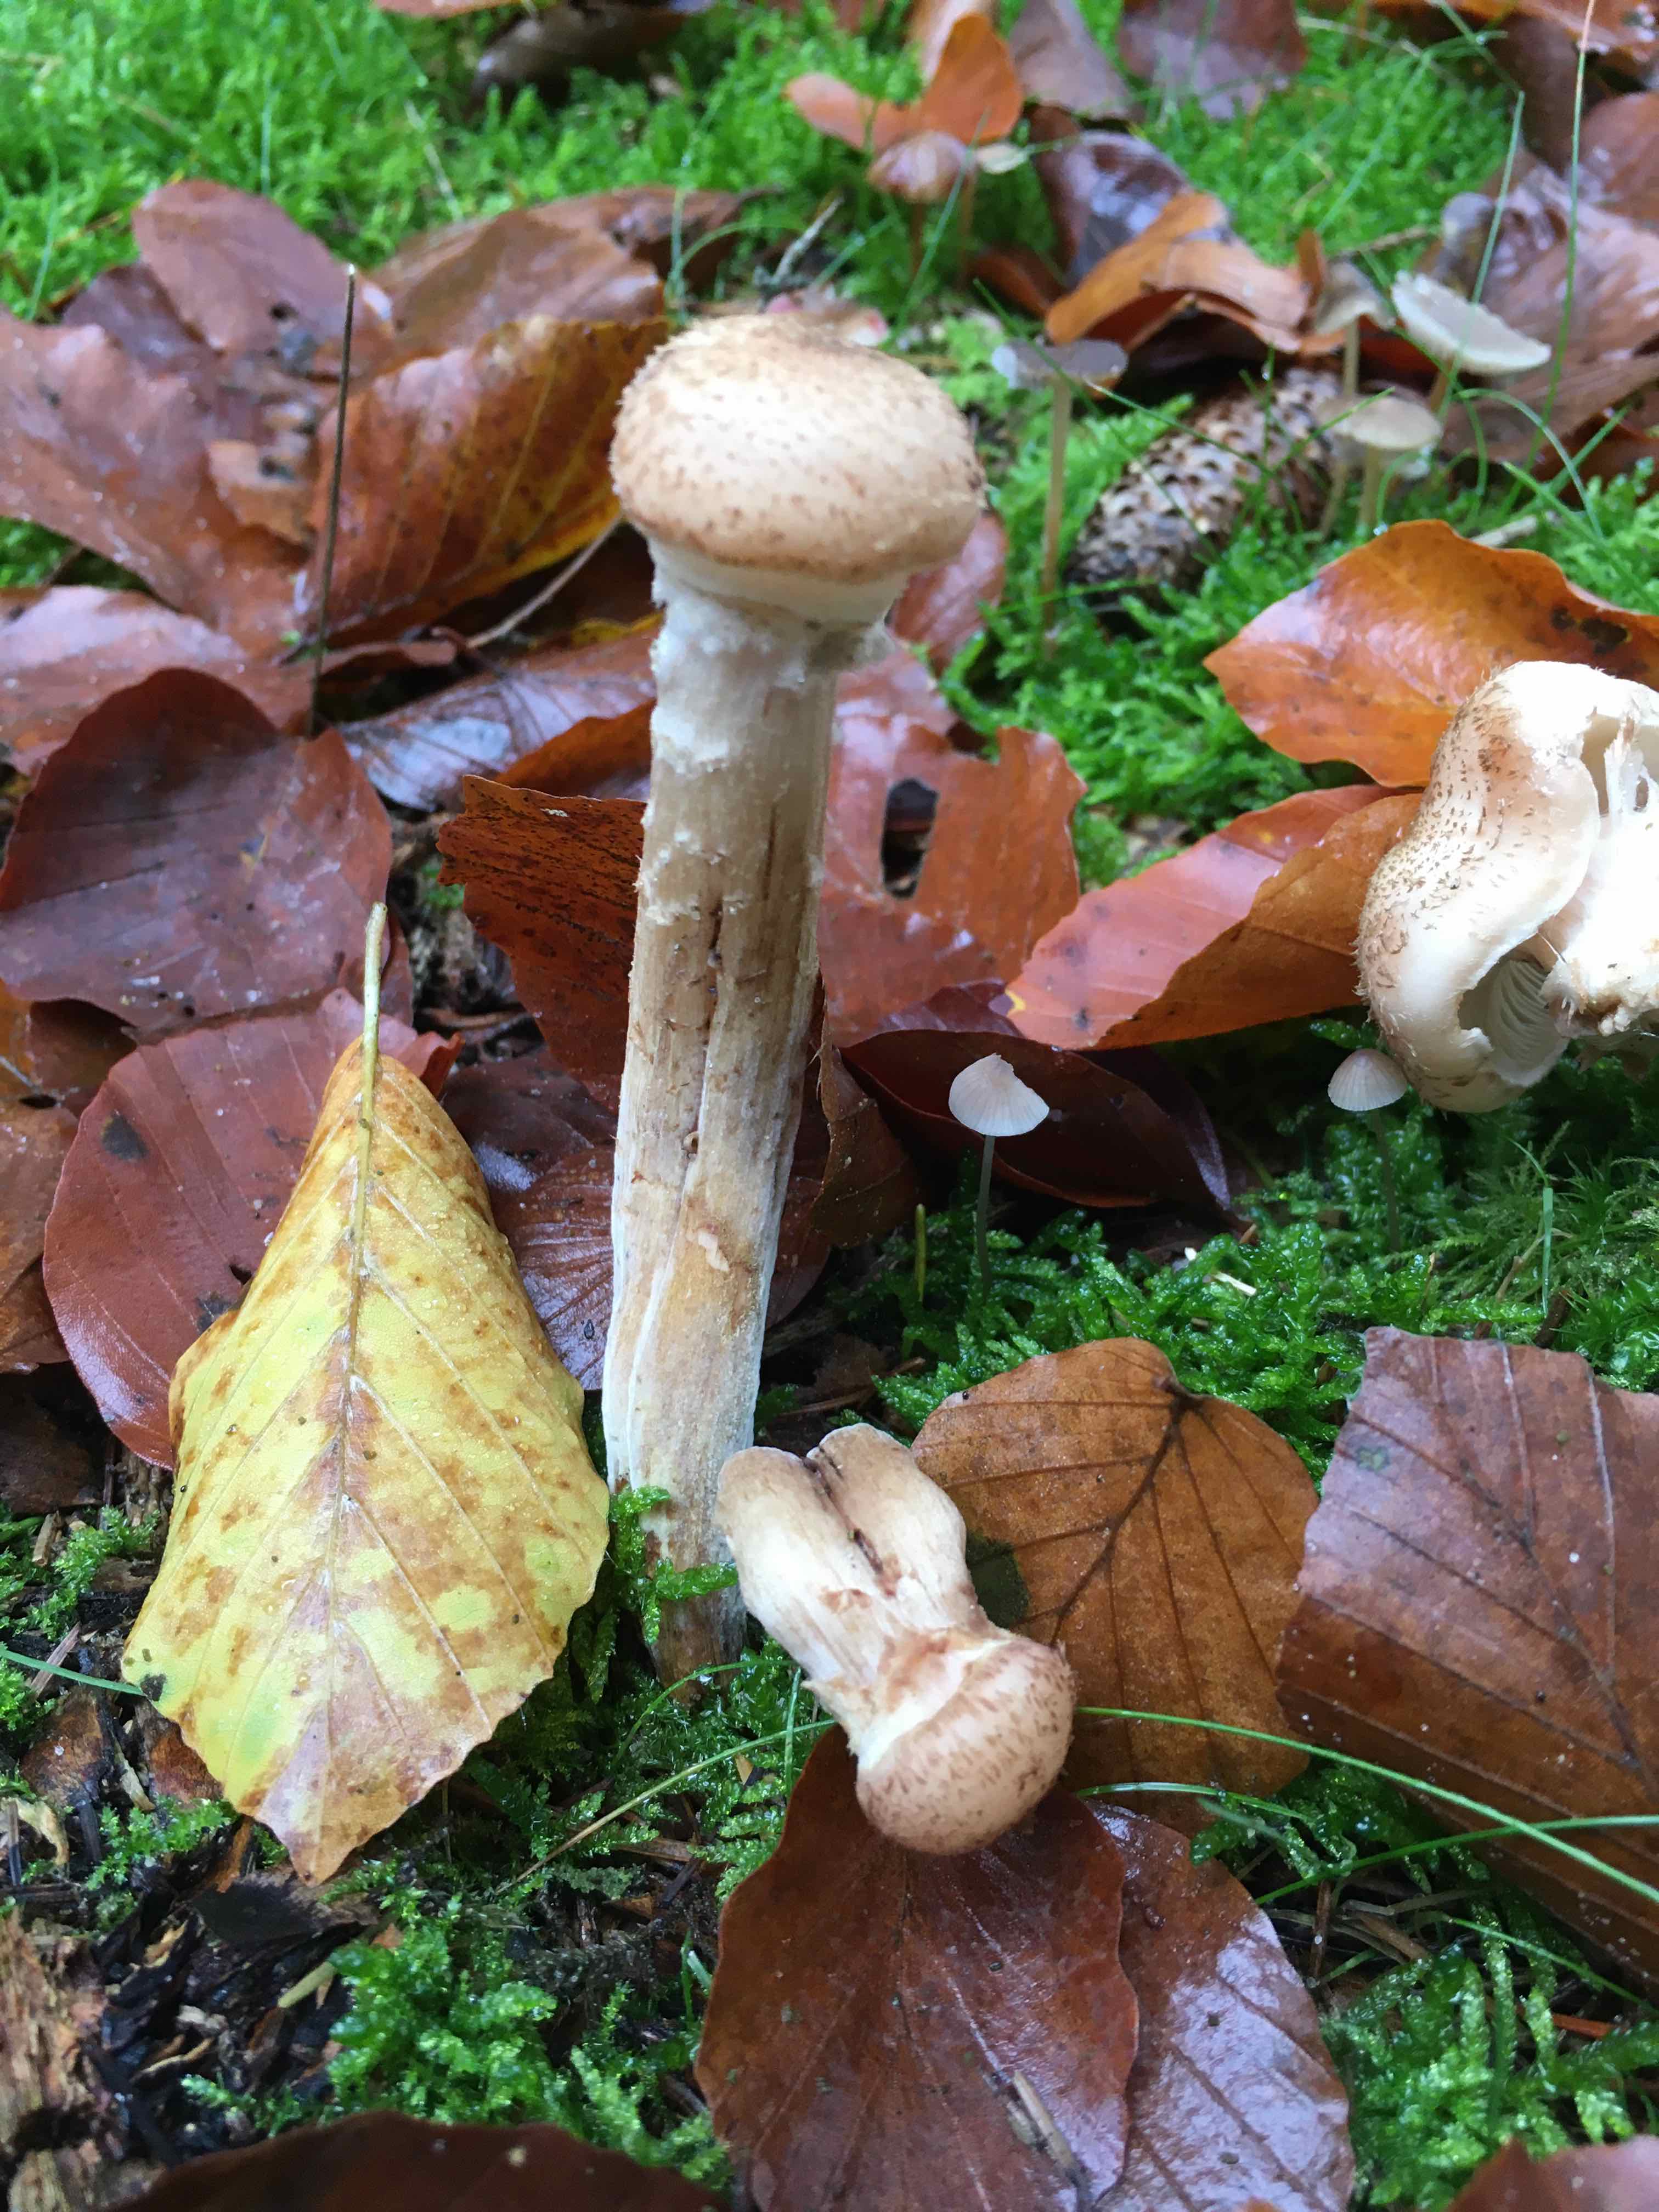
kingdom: Fungi
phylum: Basidiomycota
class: Agaricomycetes
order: Agaricales
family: Physalacriaceae
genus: Armillaria
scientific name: Armillaria ostoyae
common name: mørk honningsvamp
